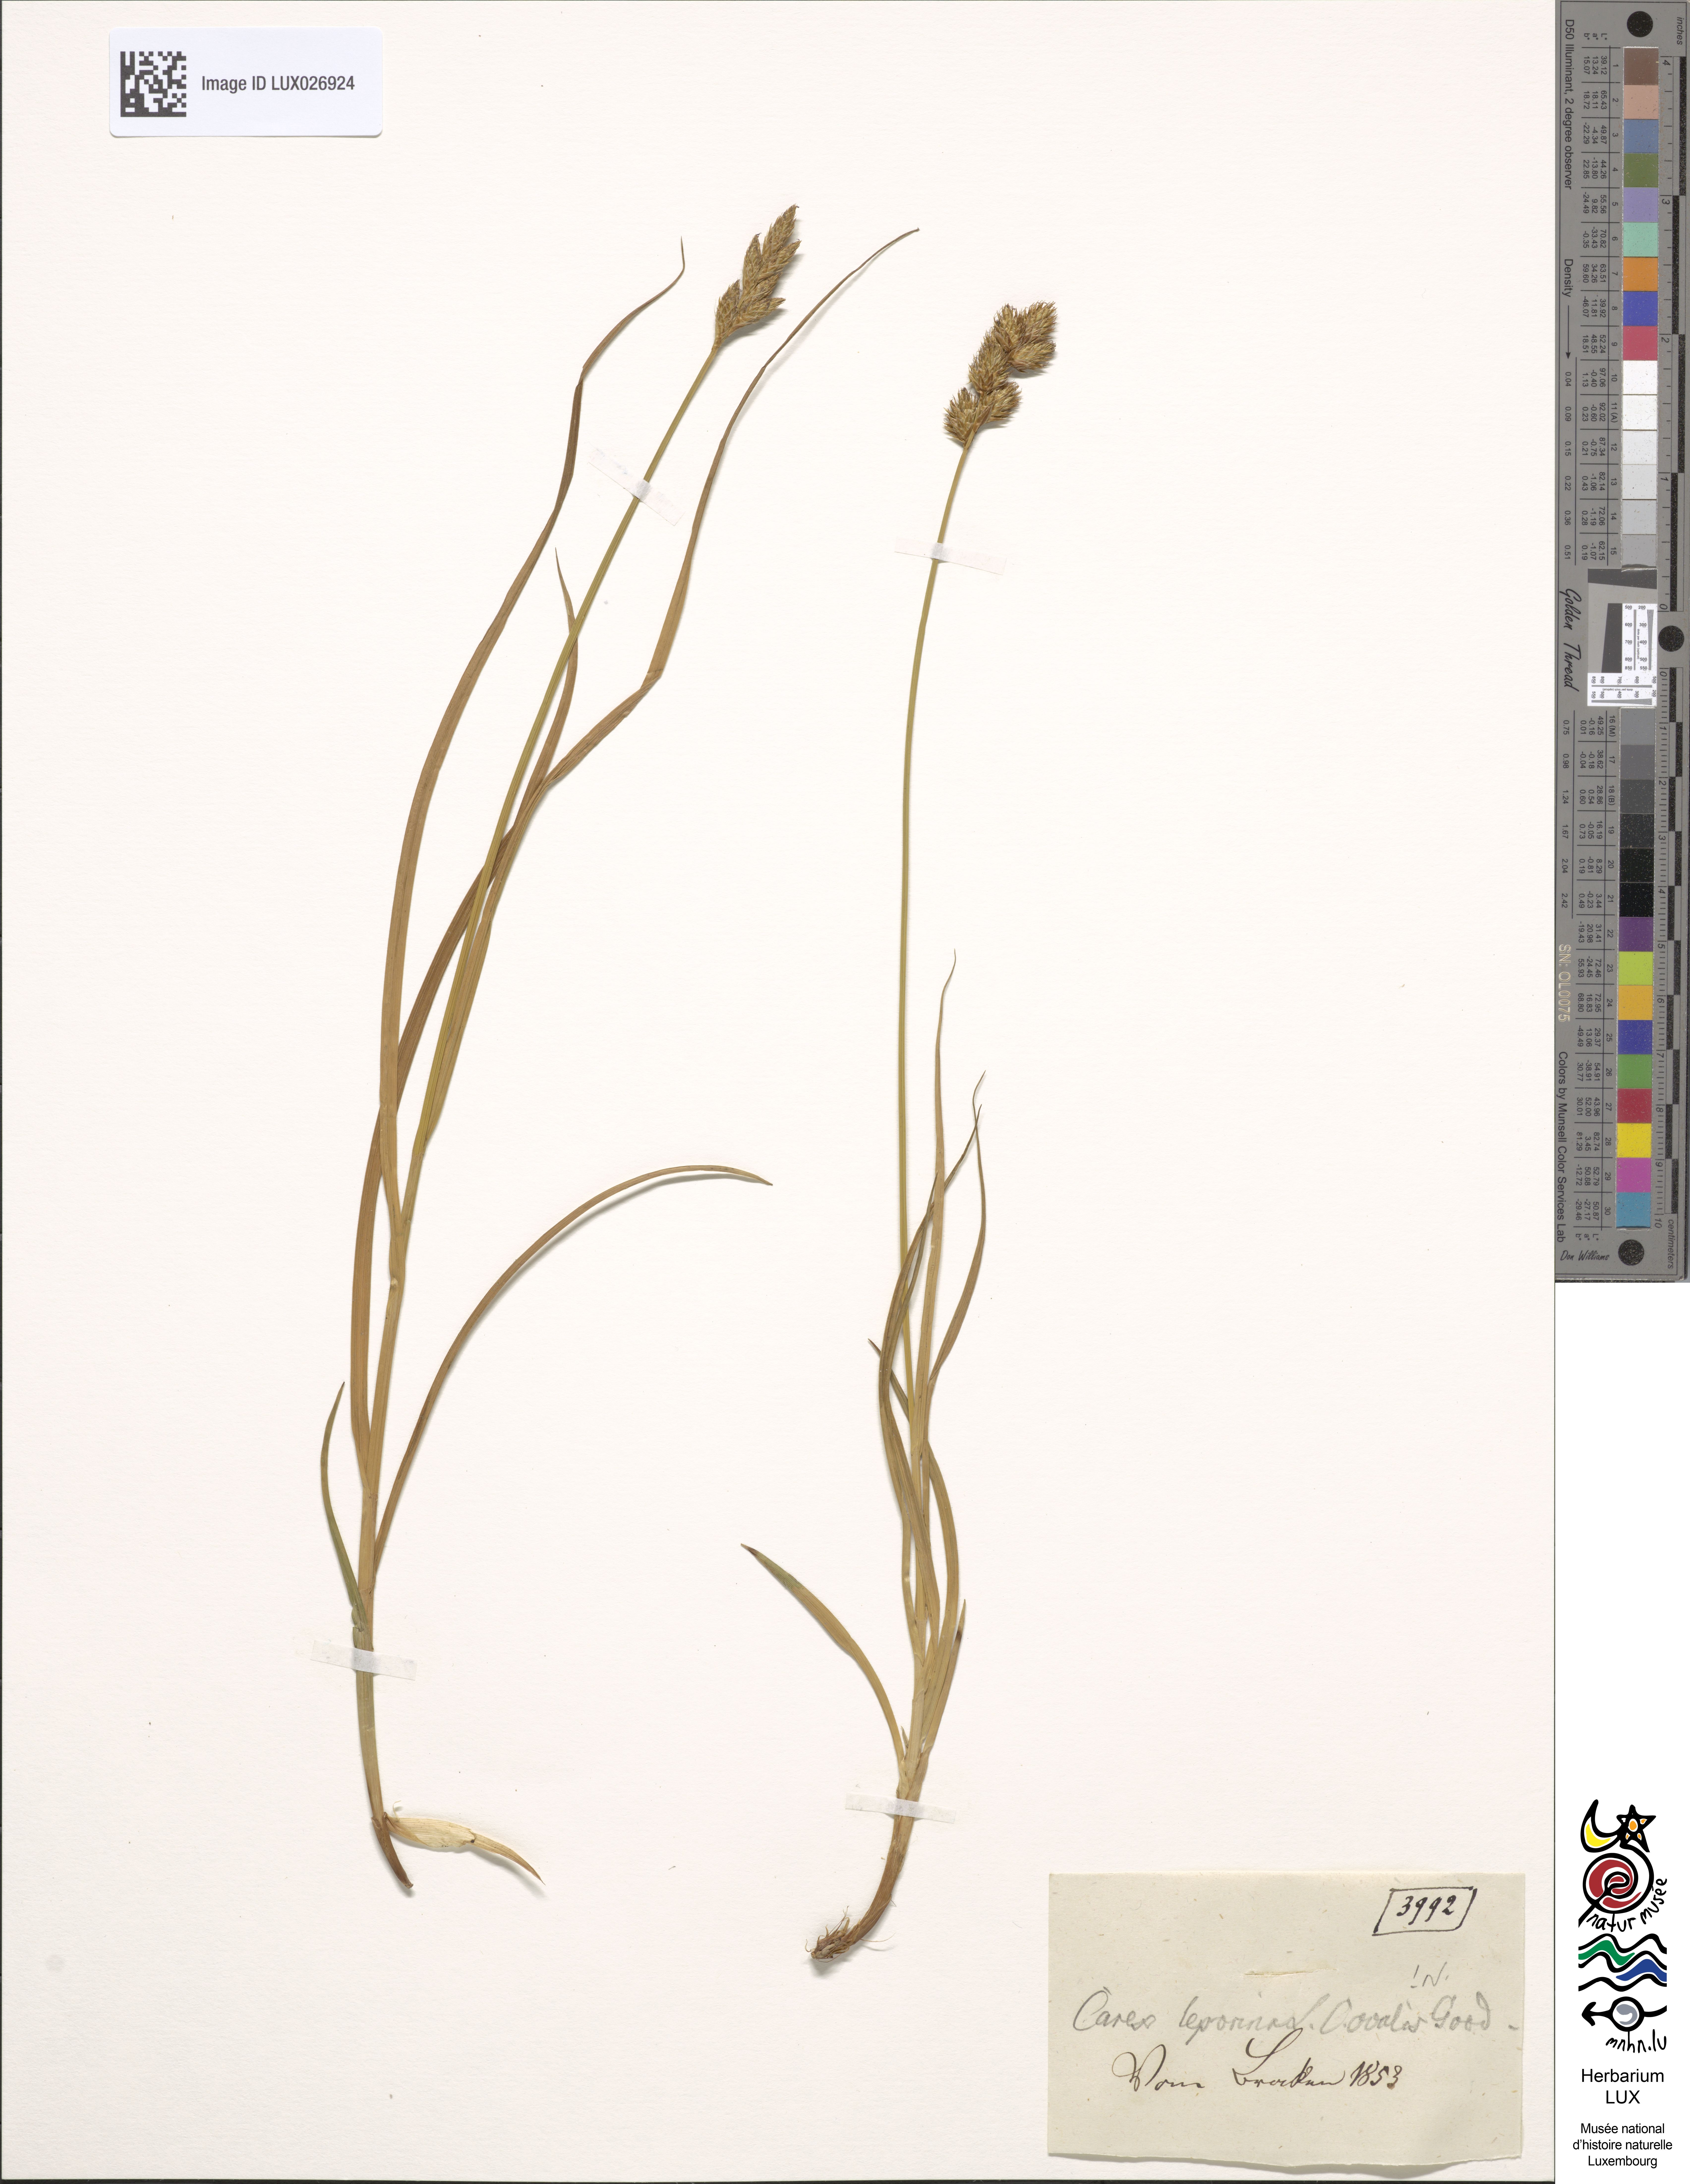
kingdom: Plantae
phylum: Tracheophyta
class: Liliopsida
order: Poales
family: Cyperaceae
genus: Carex
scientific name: Carex leporina
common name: Oval sedge
